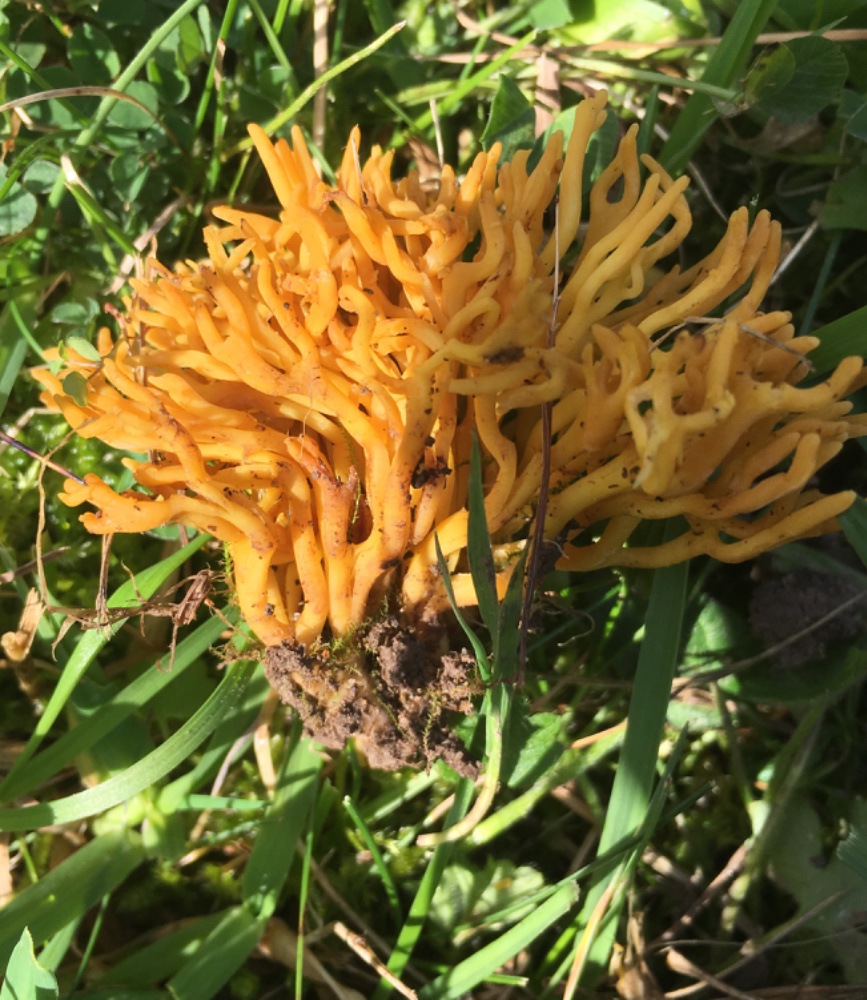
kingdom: Fungi
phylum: Basidiomycota
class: Agaricomycetes
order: Agaricales
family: Clavariaceae
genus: Clavulinopsis
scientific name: Clavulinopsis corniculata
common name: eng-køllesvamp
